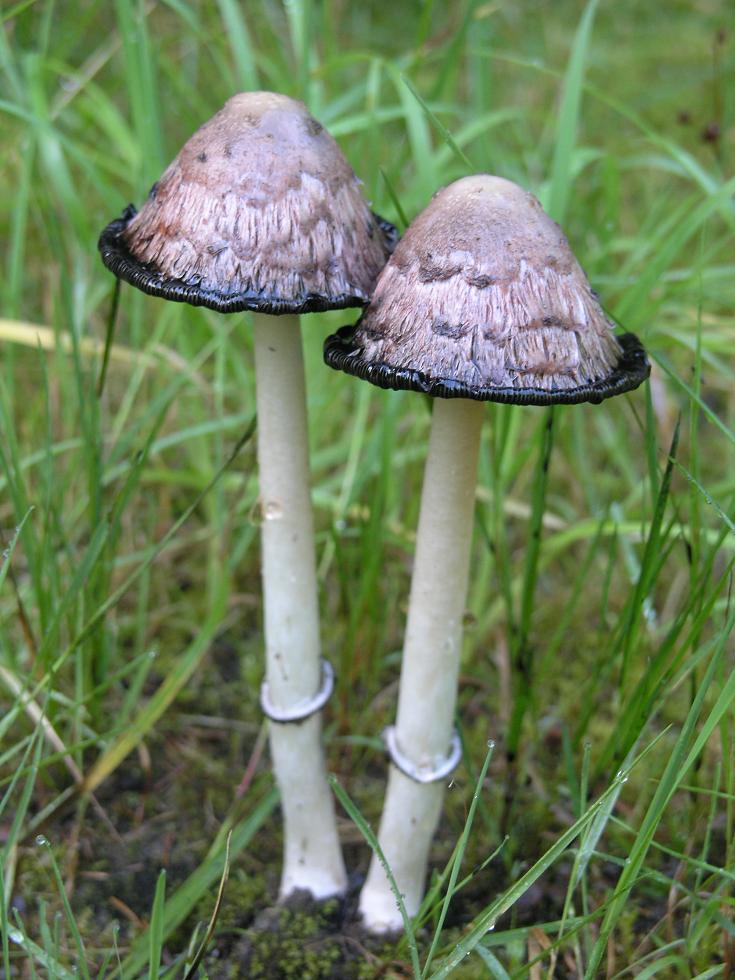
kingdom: Fungi
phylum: Basidiomycota
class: Agaricomycetes
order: Agaricales
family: Agaricaceae
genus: Coprinus
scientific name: Coprinus comatus
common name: stor parykhat
